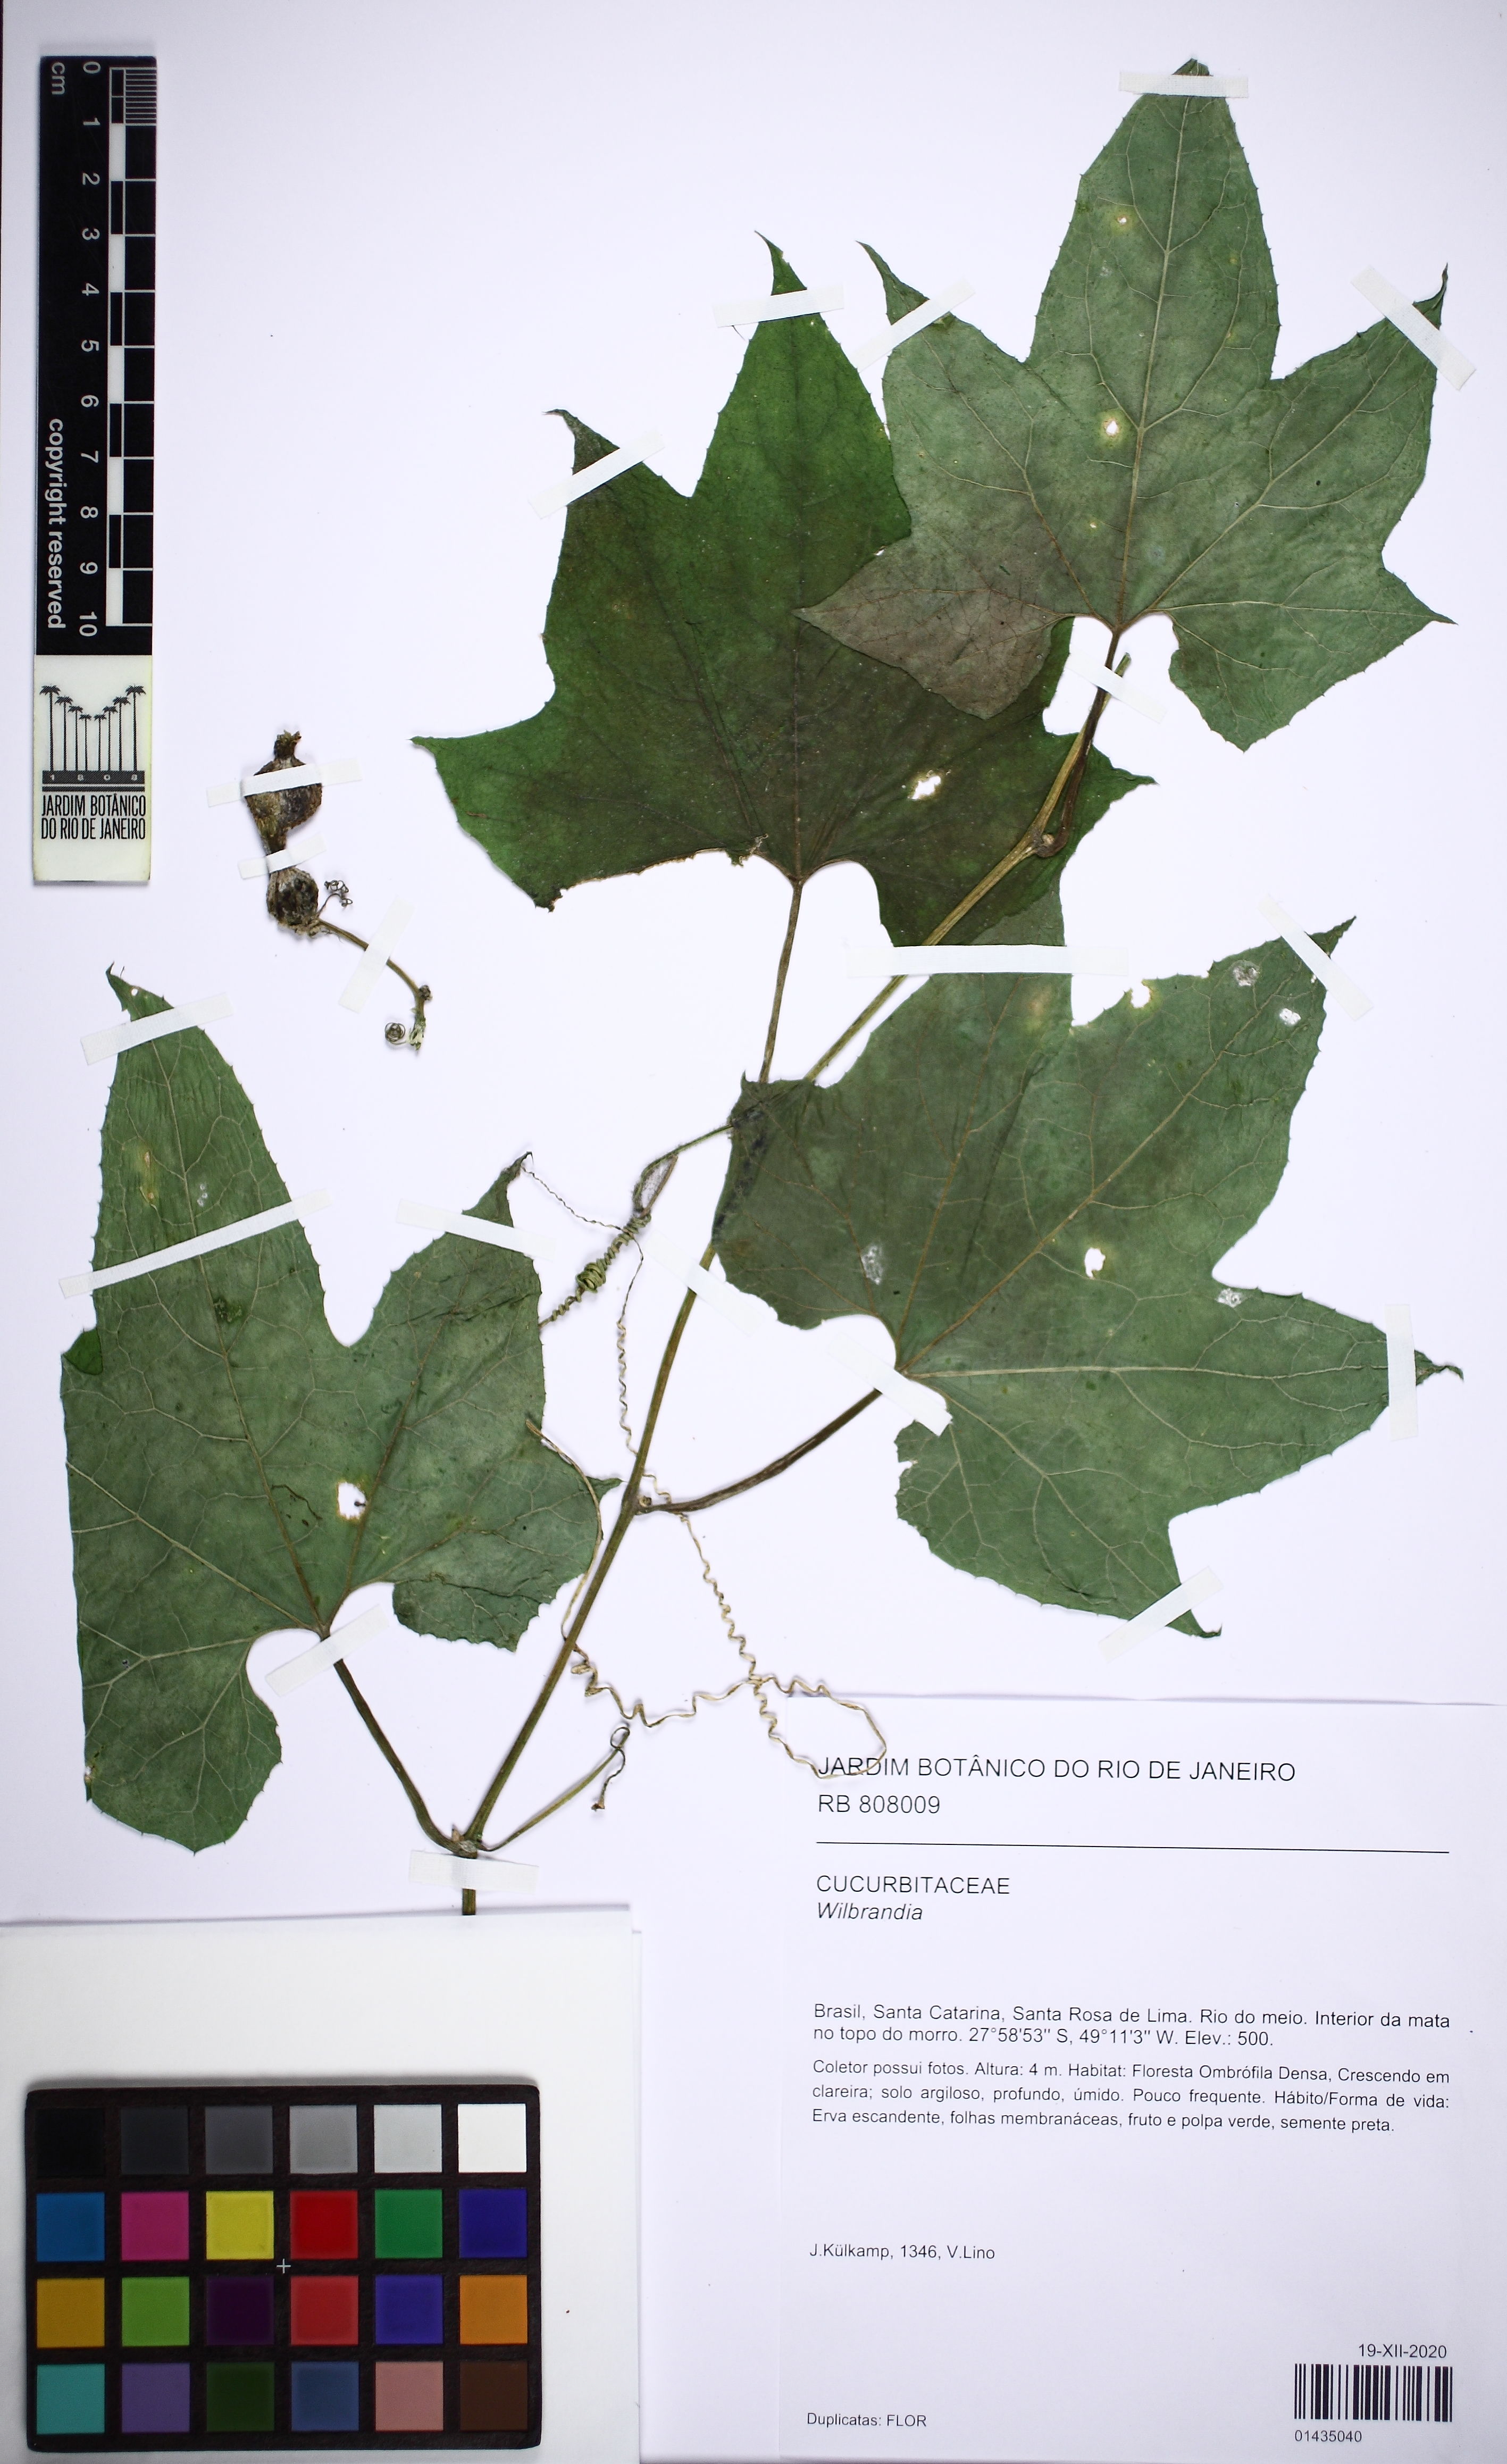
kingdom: Plantae
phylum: Tracheophyta
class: Magnoliopsida
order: Cucurbitales
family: Cucurbitaceae
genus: Wilbrandia
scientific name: Wilbrandia
